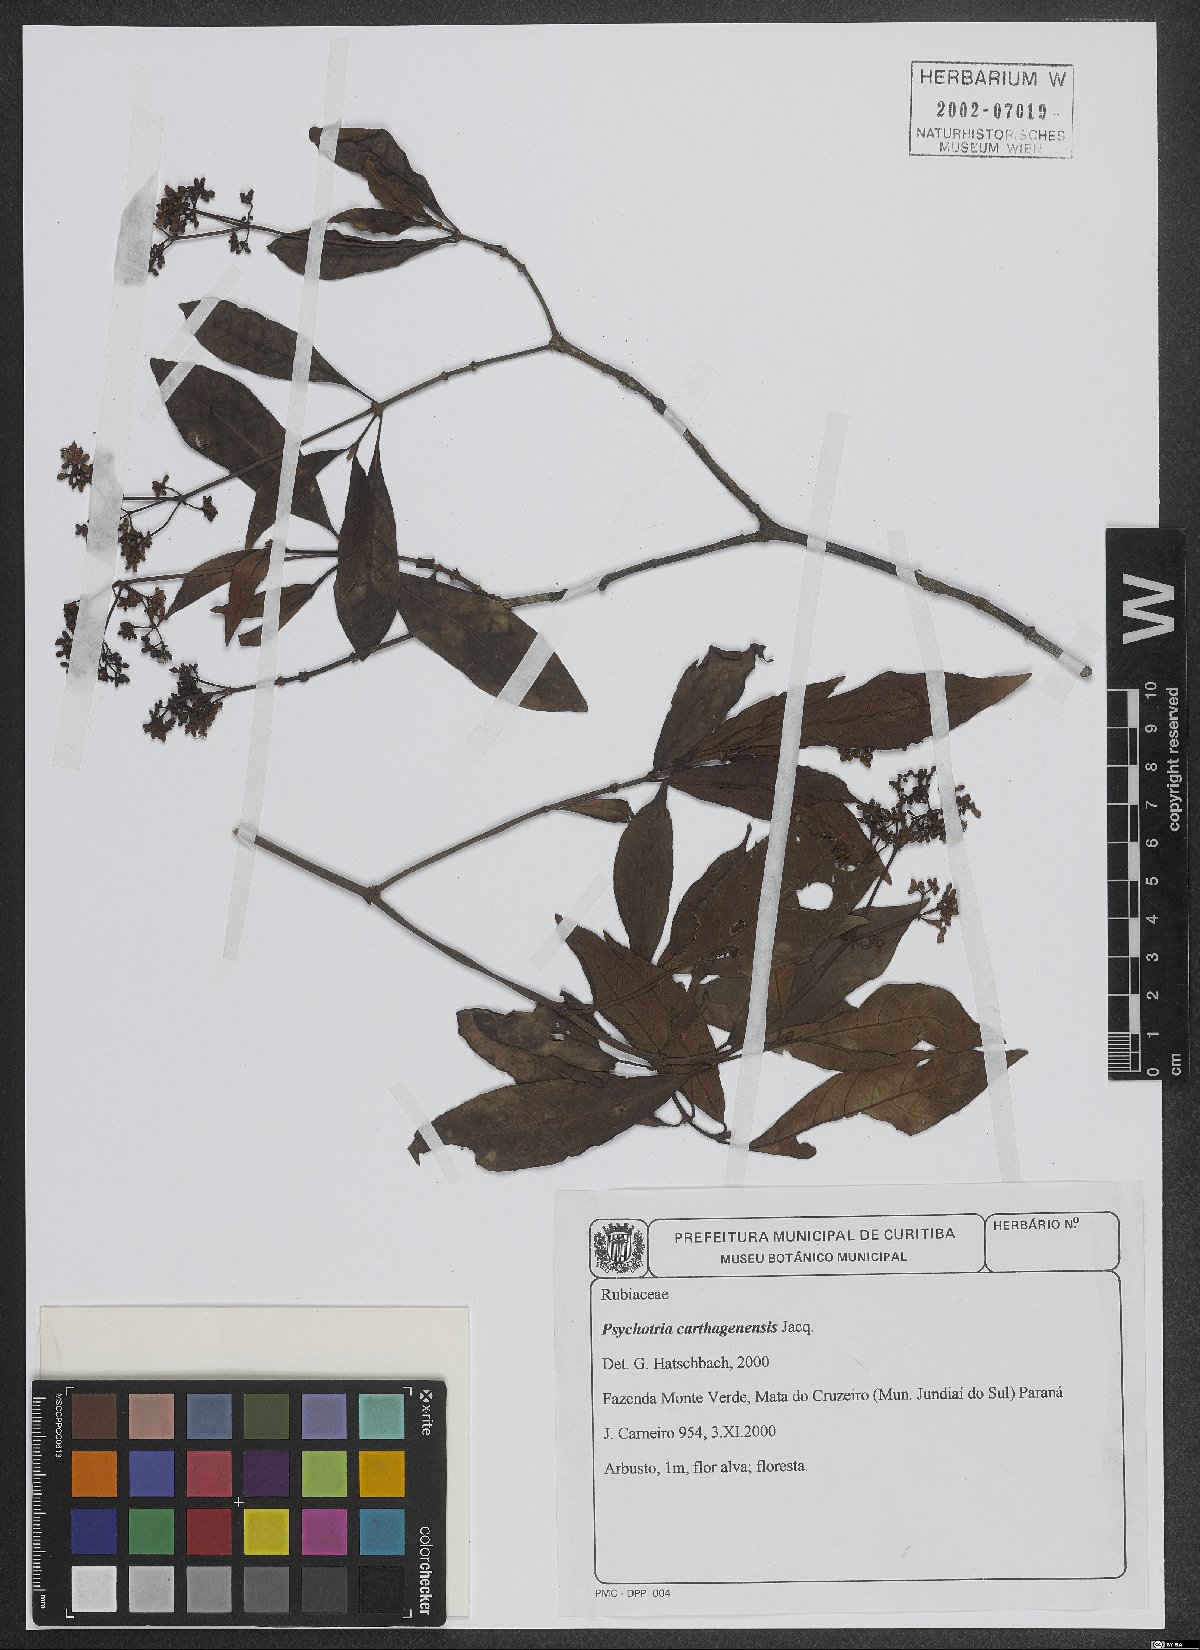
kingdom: Plantae
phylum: Tracheophyta
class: Magnoliopsida
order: Gentianales
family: Rubiaceae
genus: Psychotria
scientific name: Psychotria carthagenensis
